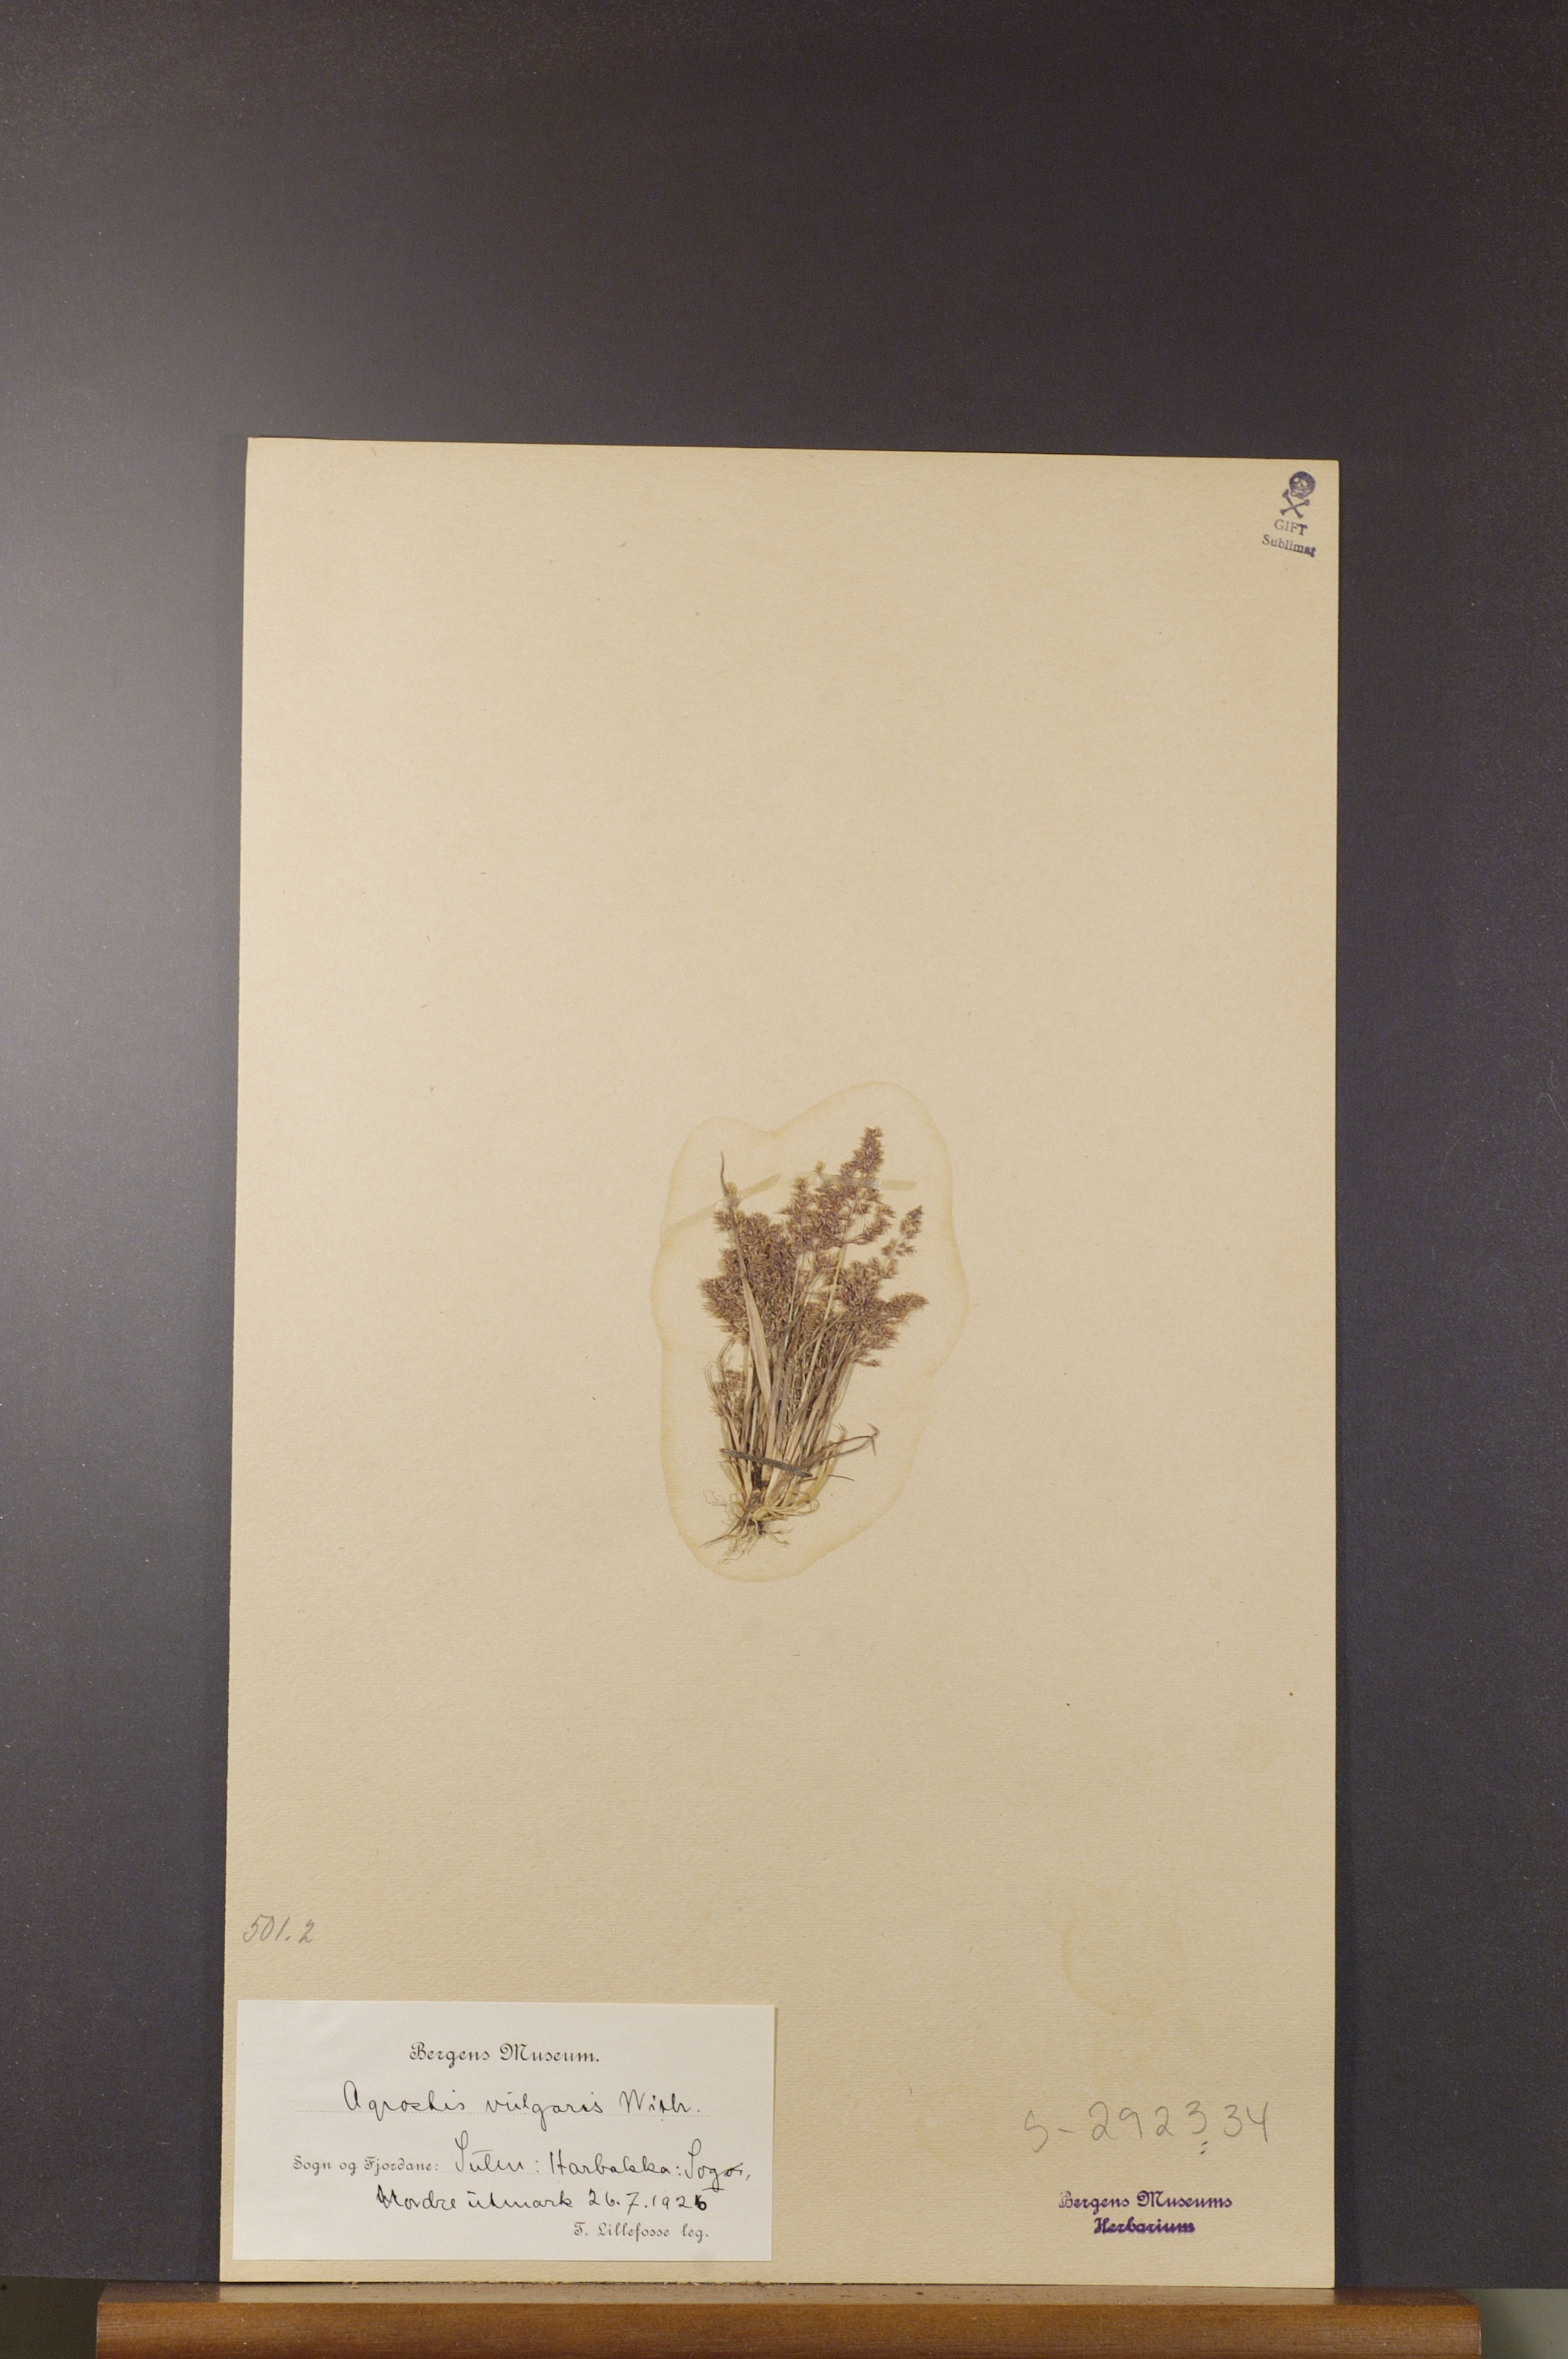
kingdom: Plantae
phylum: Tracheophyta
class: Liliopsida
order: Poales
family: Poaceae
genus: Agrostis
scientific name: Agrostis capillaris
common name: Colonial bentgrass
